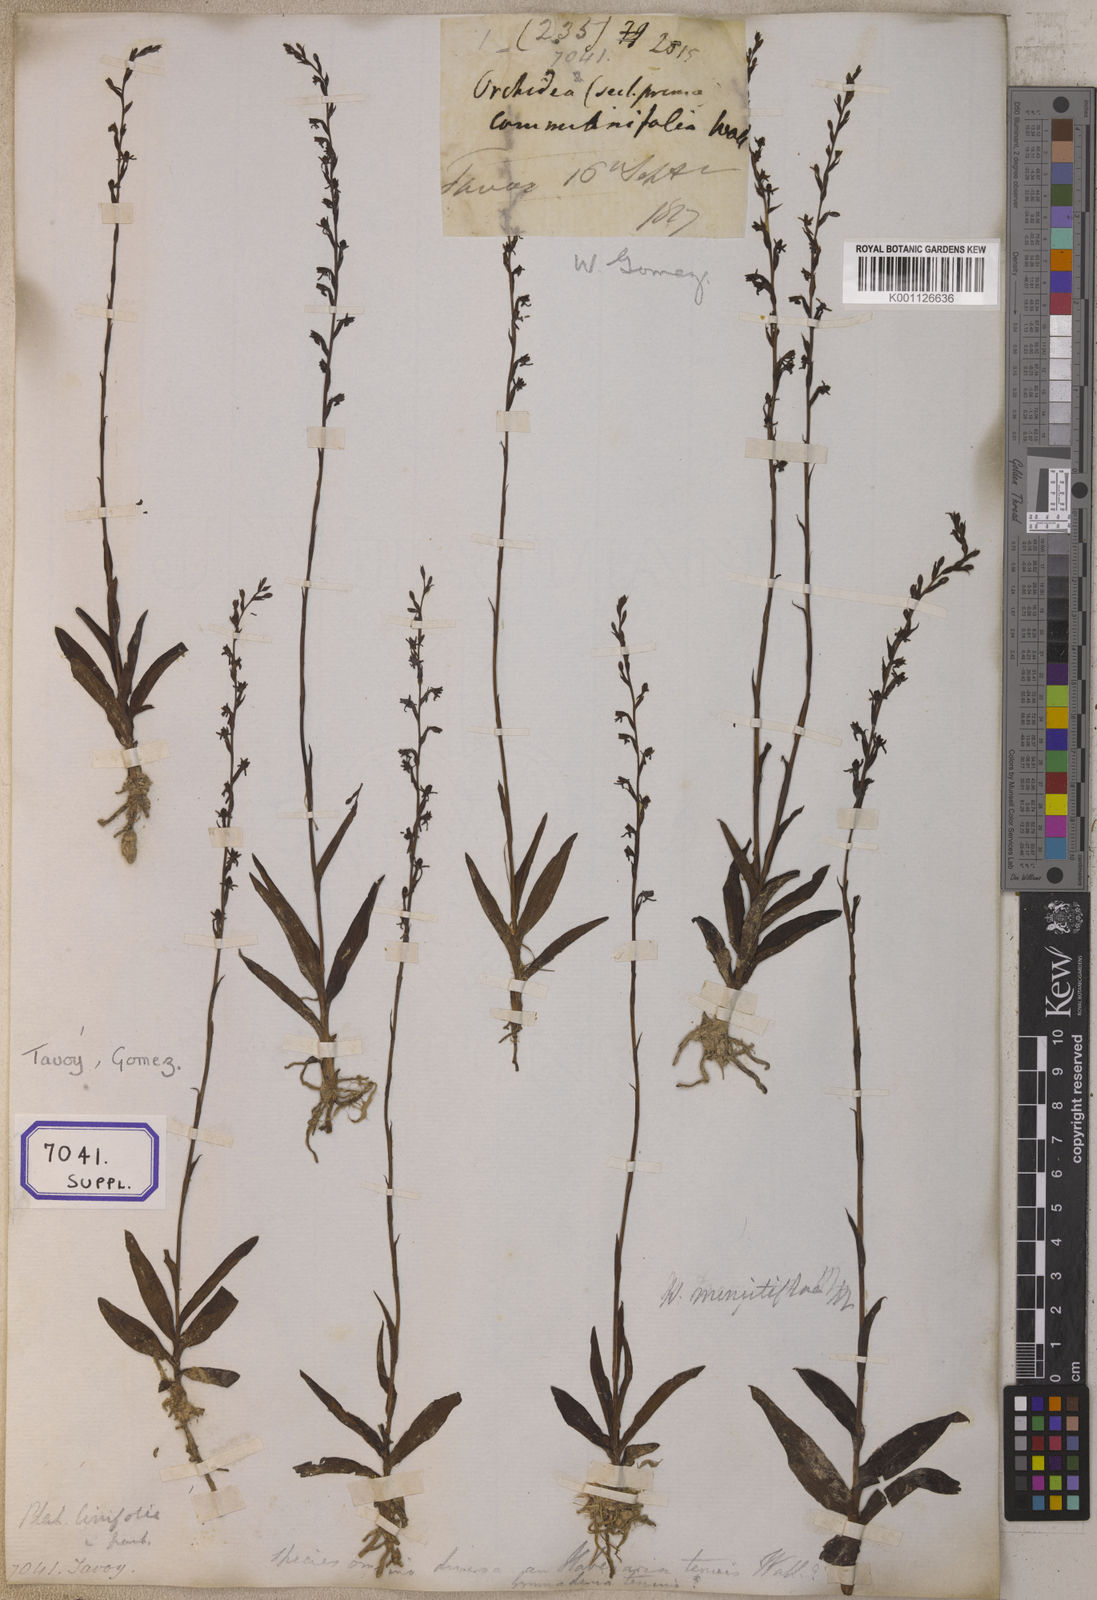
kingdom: Plantae
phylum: Tracheophyta
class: Liliopsida
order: Asparagales
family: Orchidaceae
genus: Platanthera
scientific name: Platanthera
